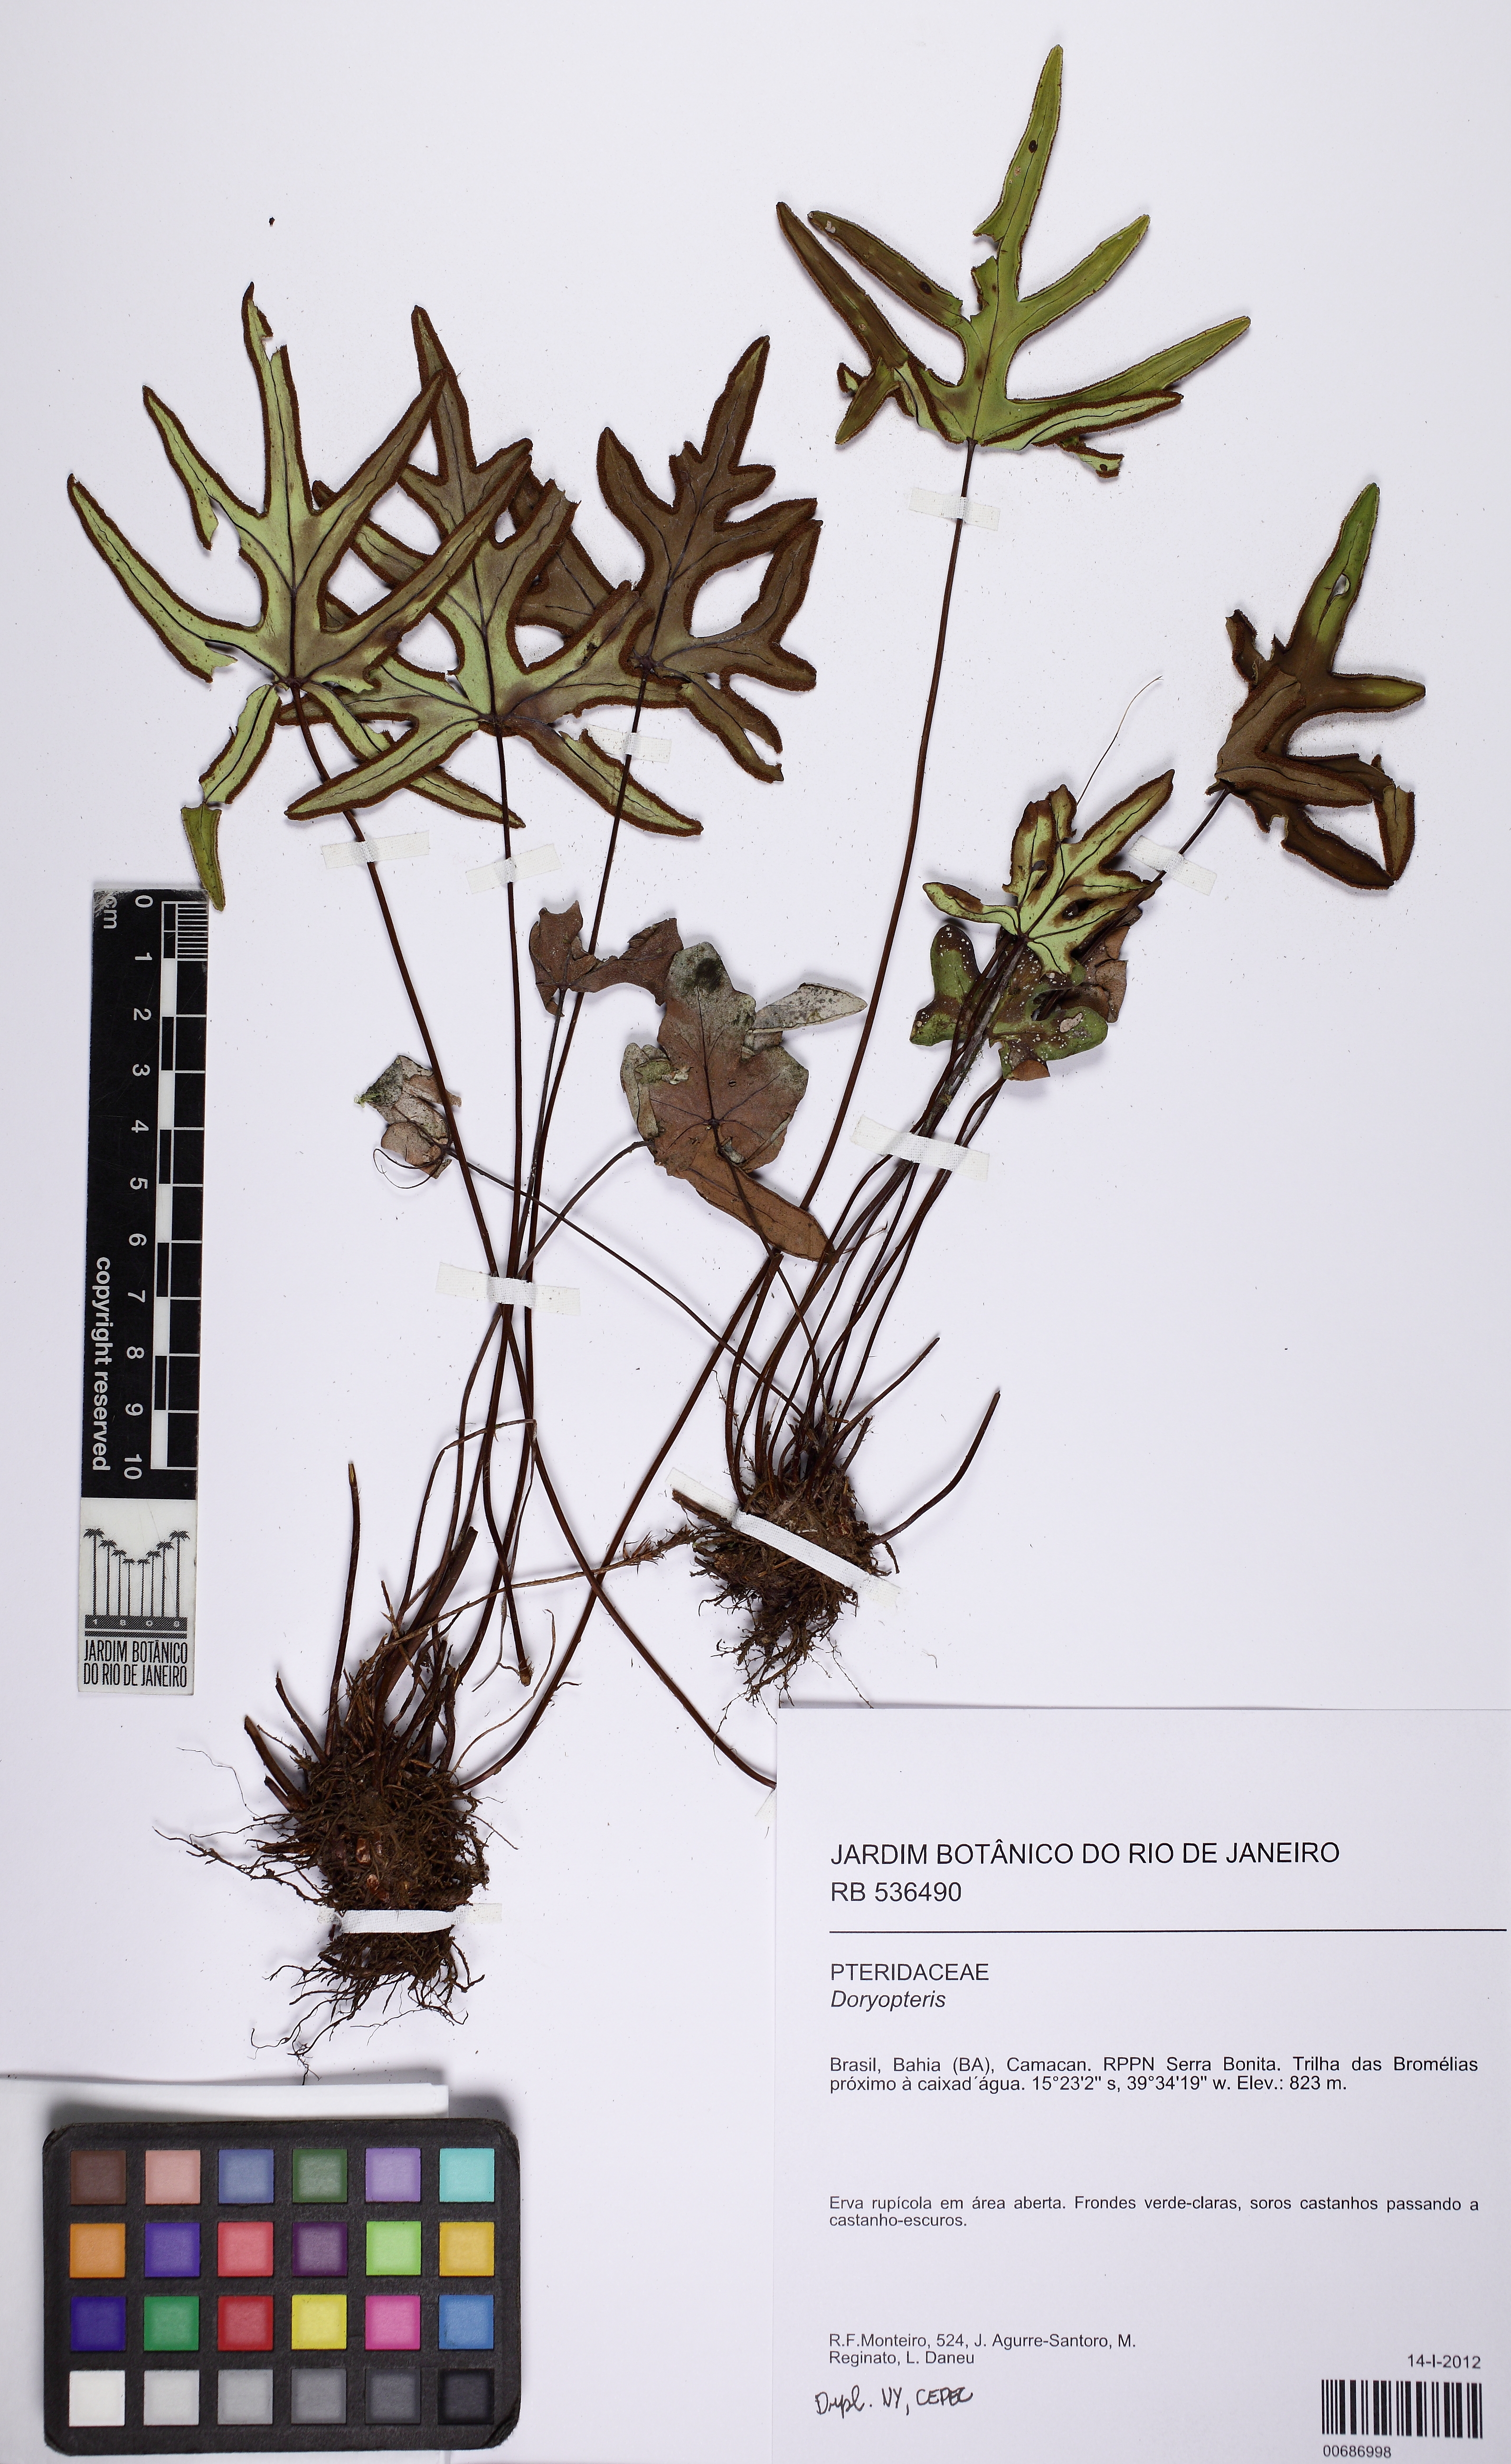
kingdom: Plantae
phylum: Tracheophyta
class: Polypodiopsida
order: Polypodiales
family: Pteridaceae
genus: Doryopteris
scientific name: Doryopteris collina
